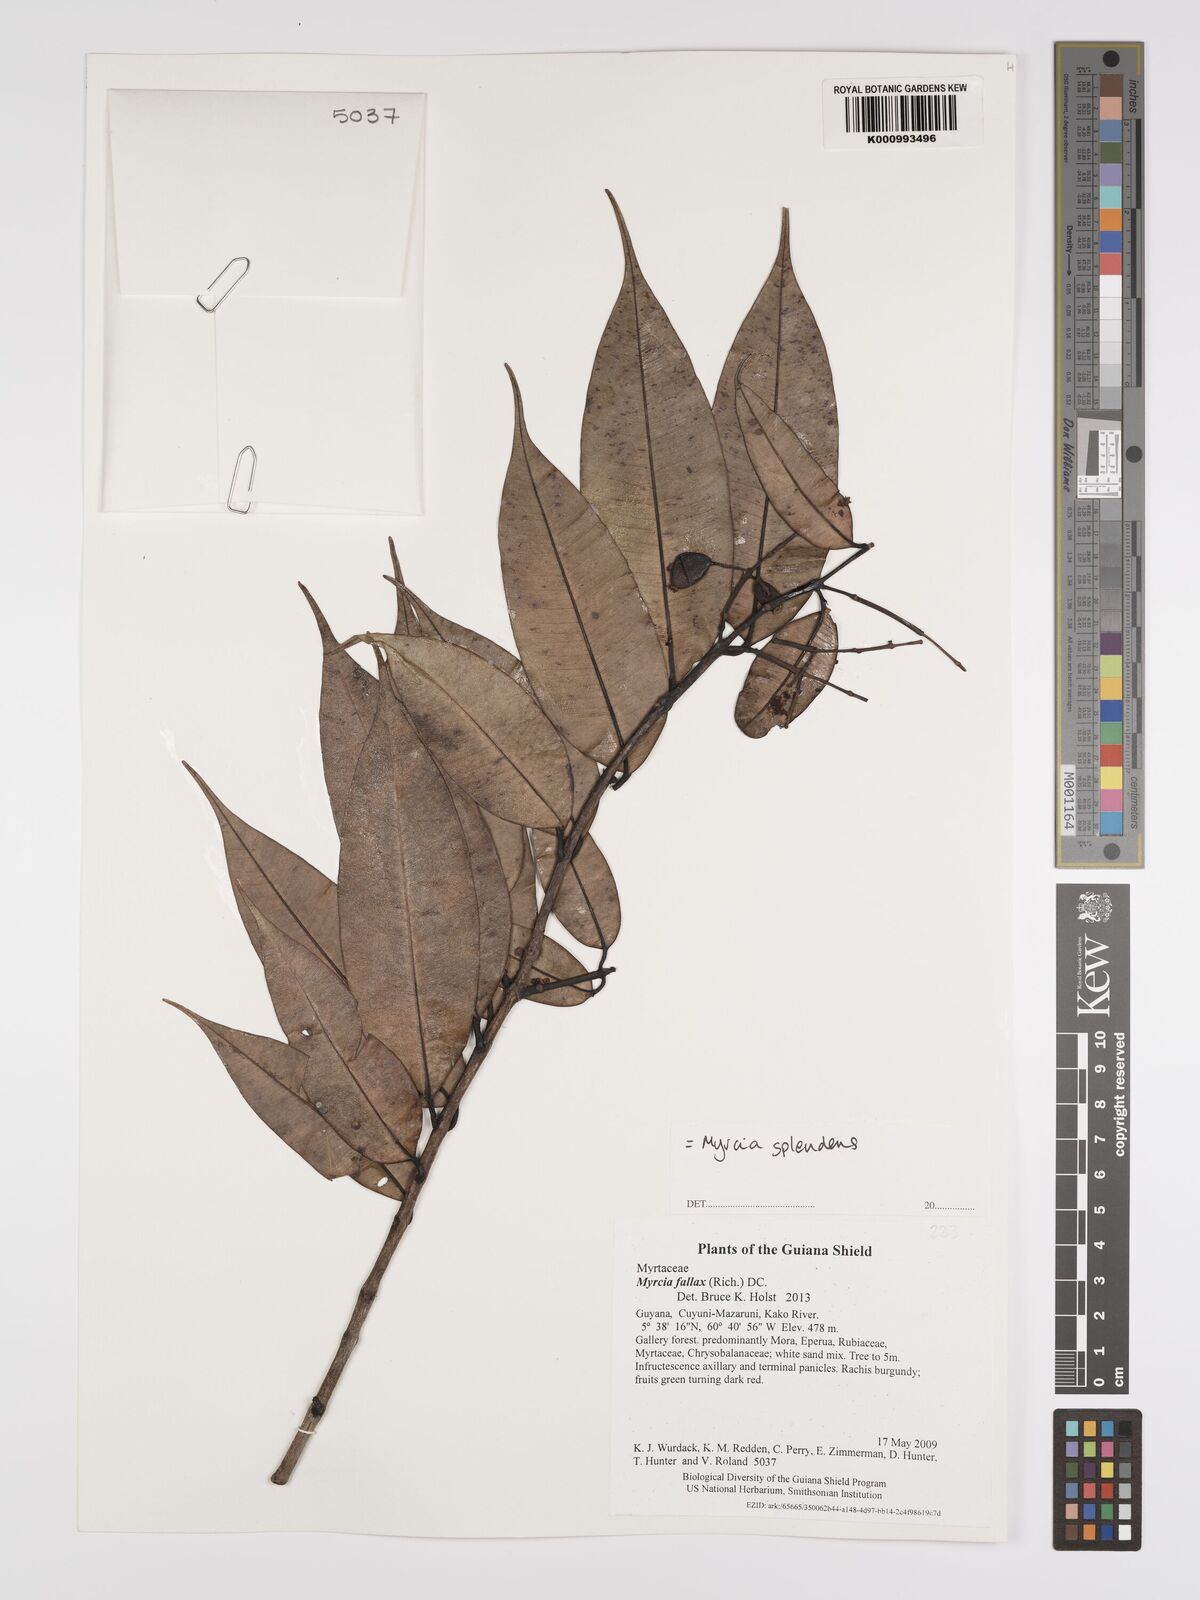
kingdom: Plantae
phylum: Tracheophyta
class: Magnoliopsida
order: Myrtales
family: Myrtaceae
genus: Myrcia
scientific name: Myrcia splendens
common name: Surinam cherry
